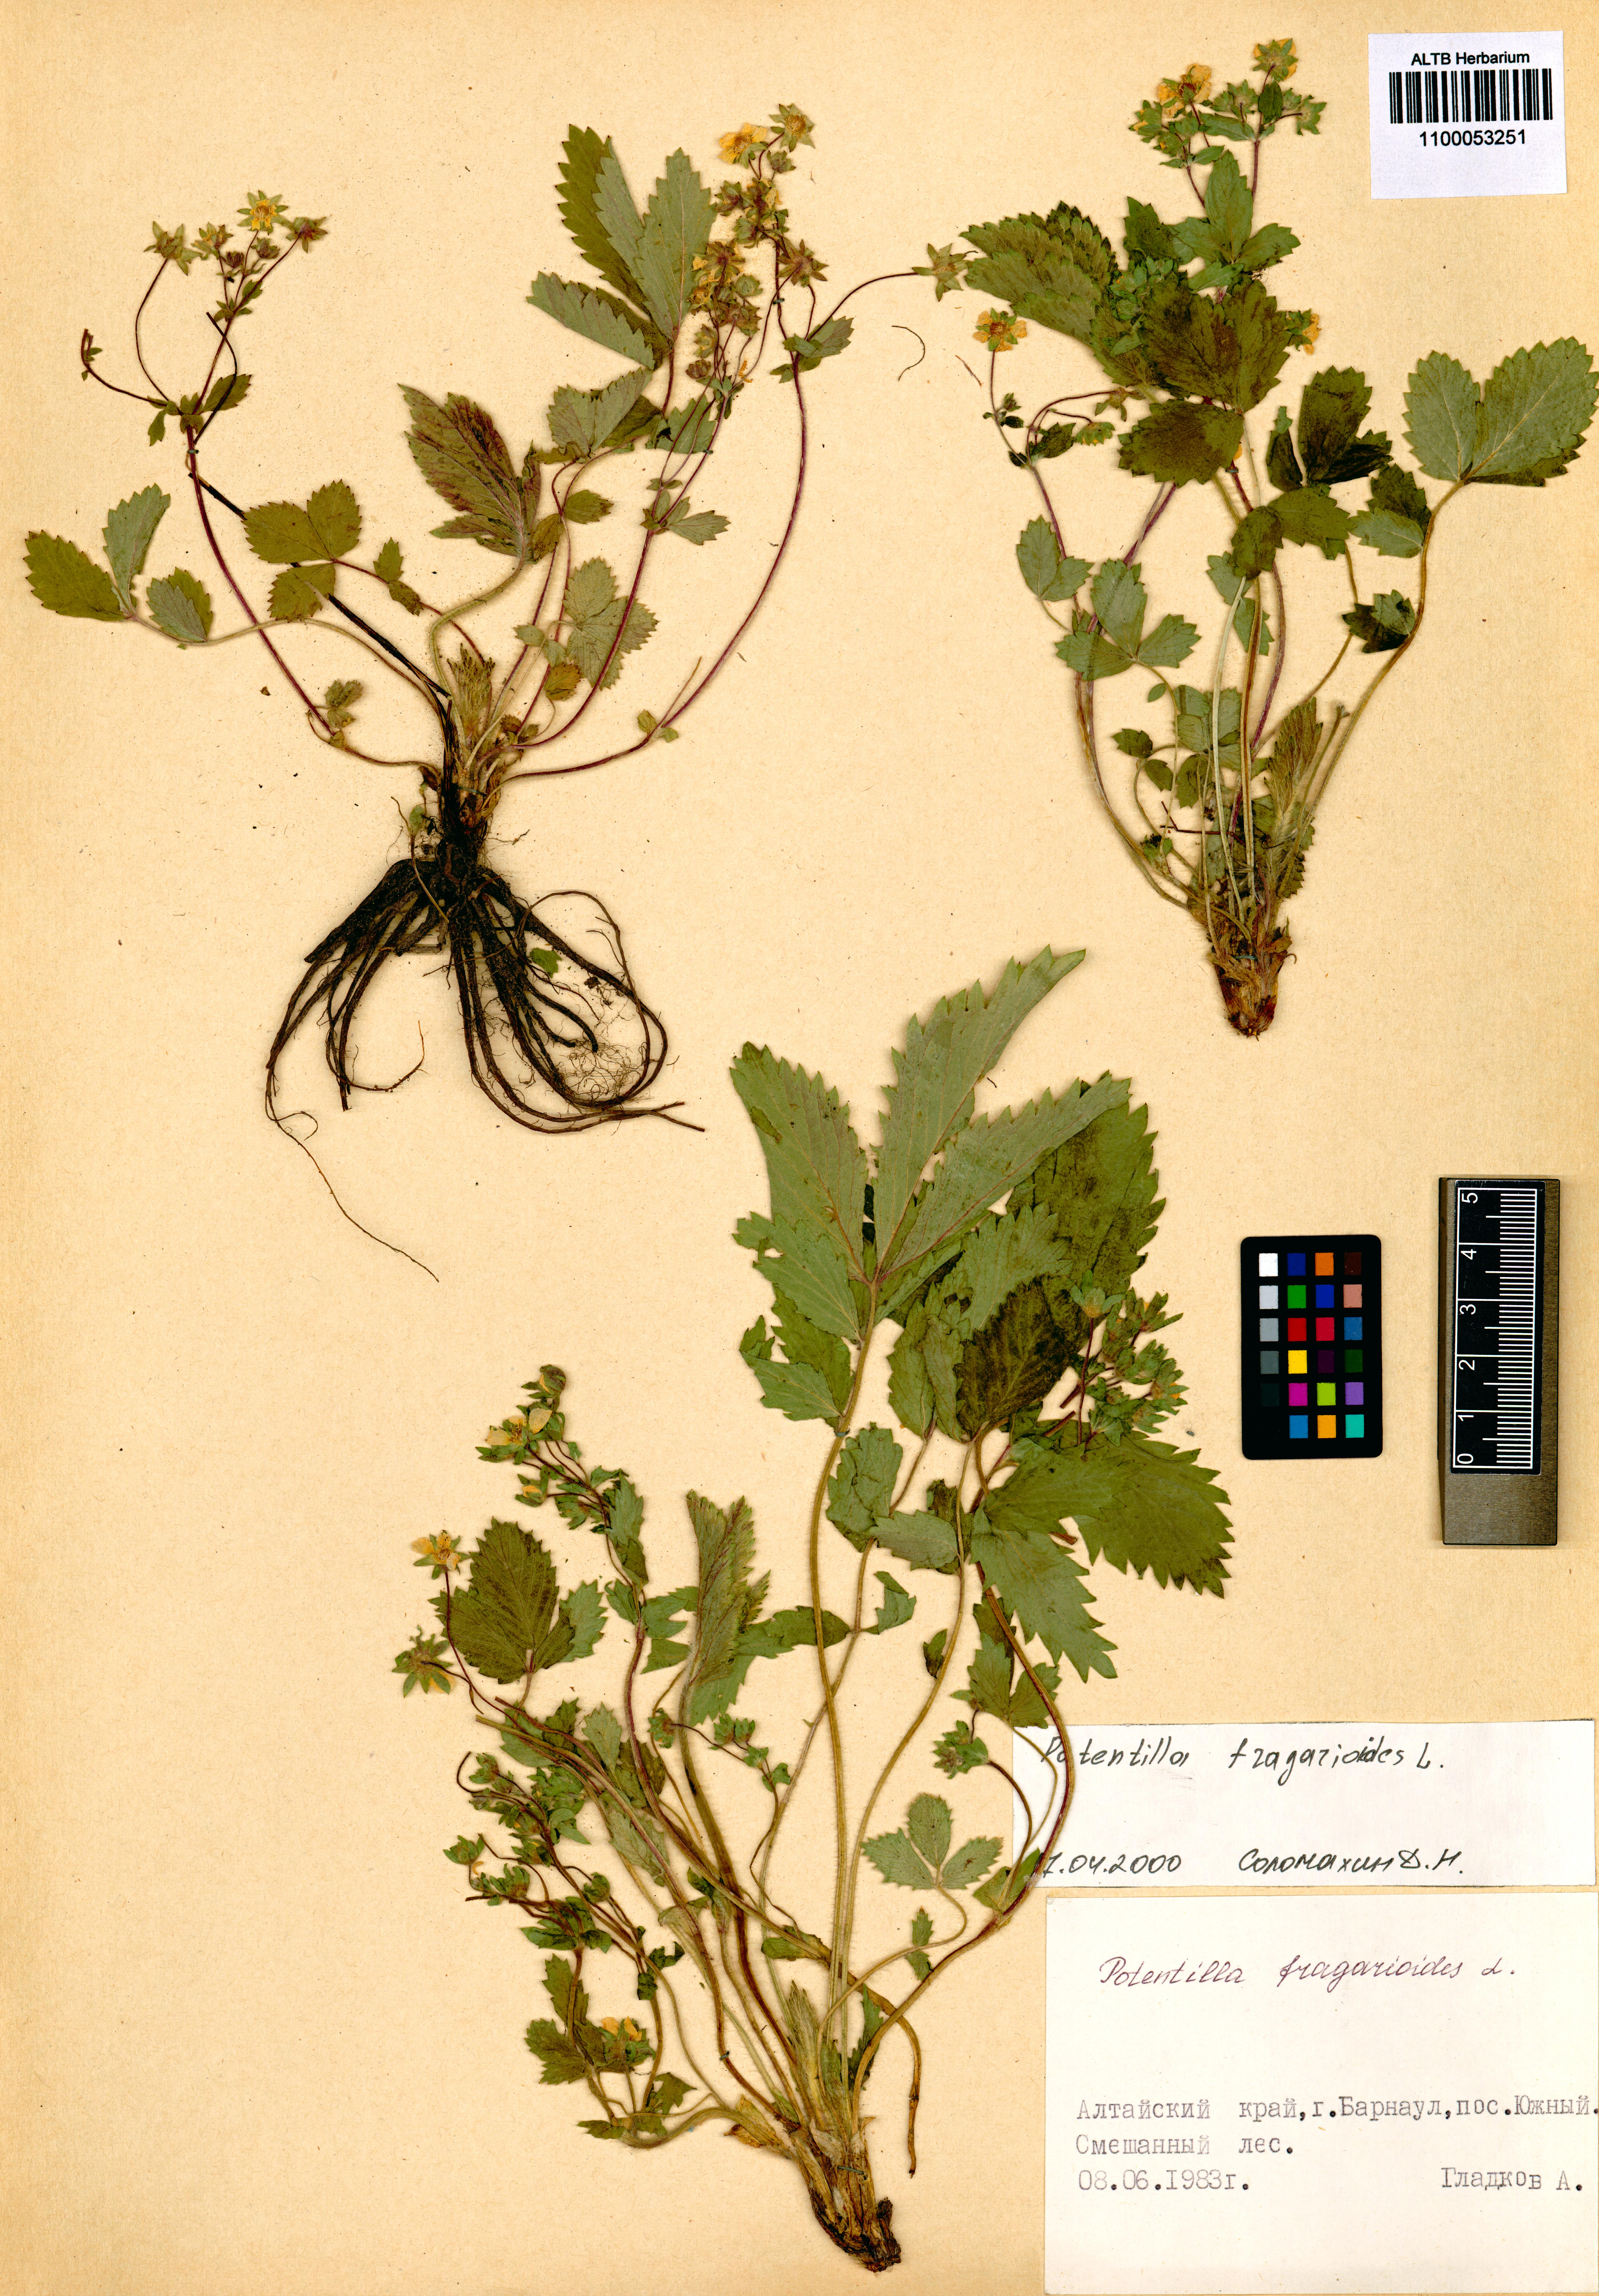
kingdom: Plantae
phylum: Tracheophyta
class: Magnoliopsida
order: Rosales
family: Rosaceae
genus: Potentilla
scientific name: Potentilla fragarioides
